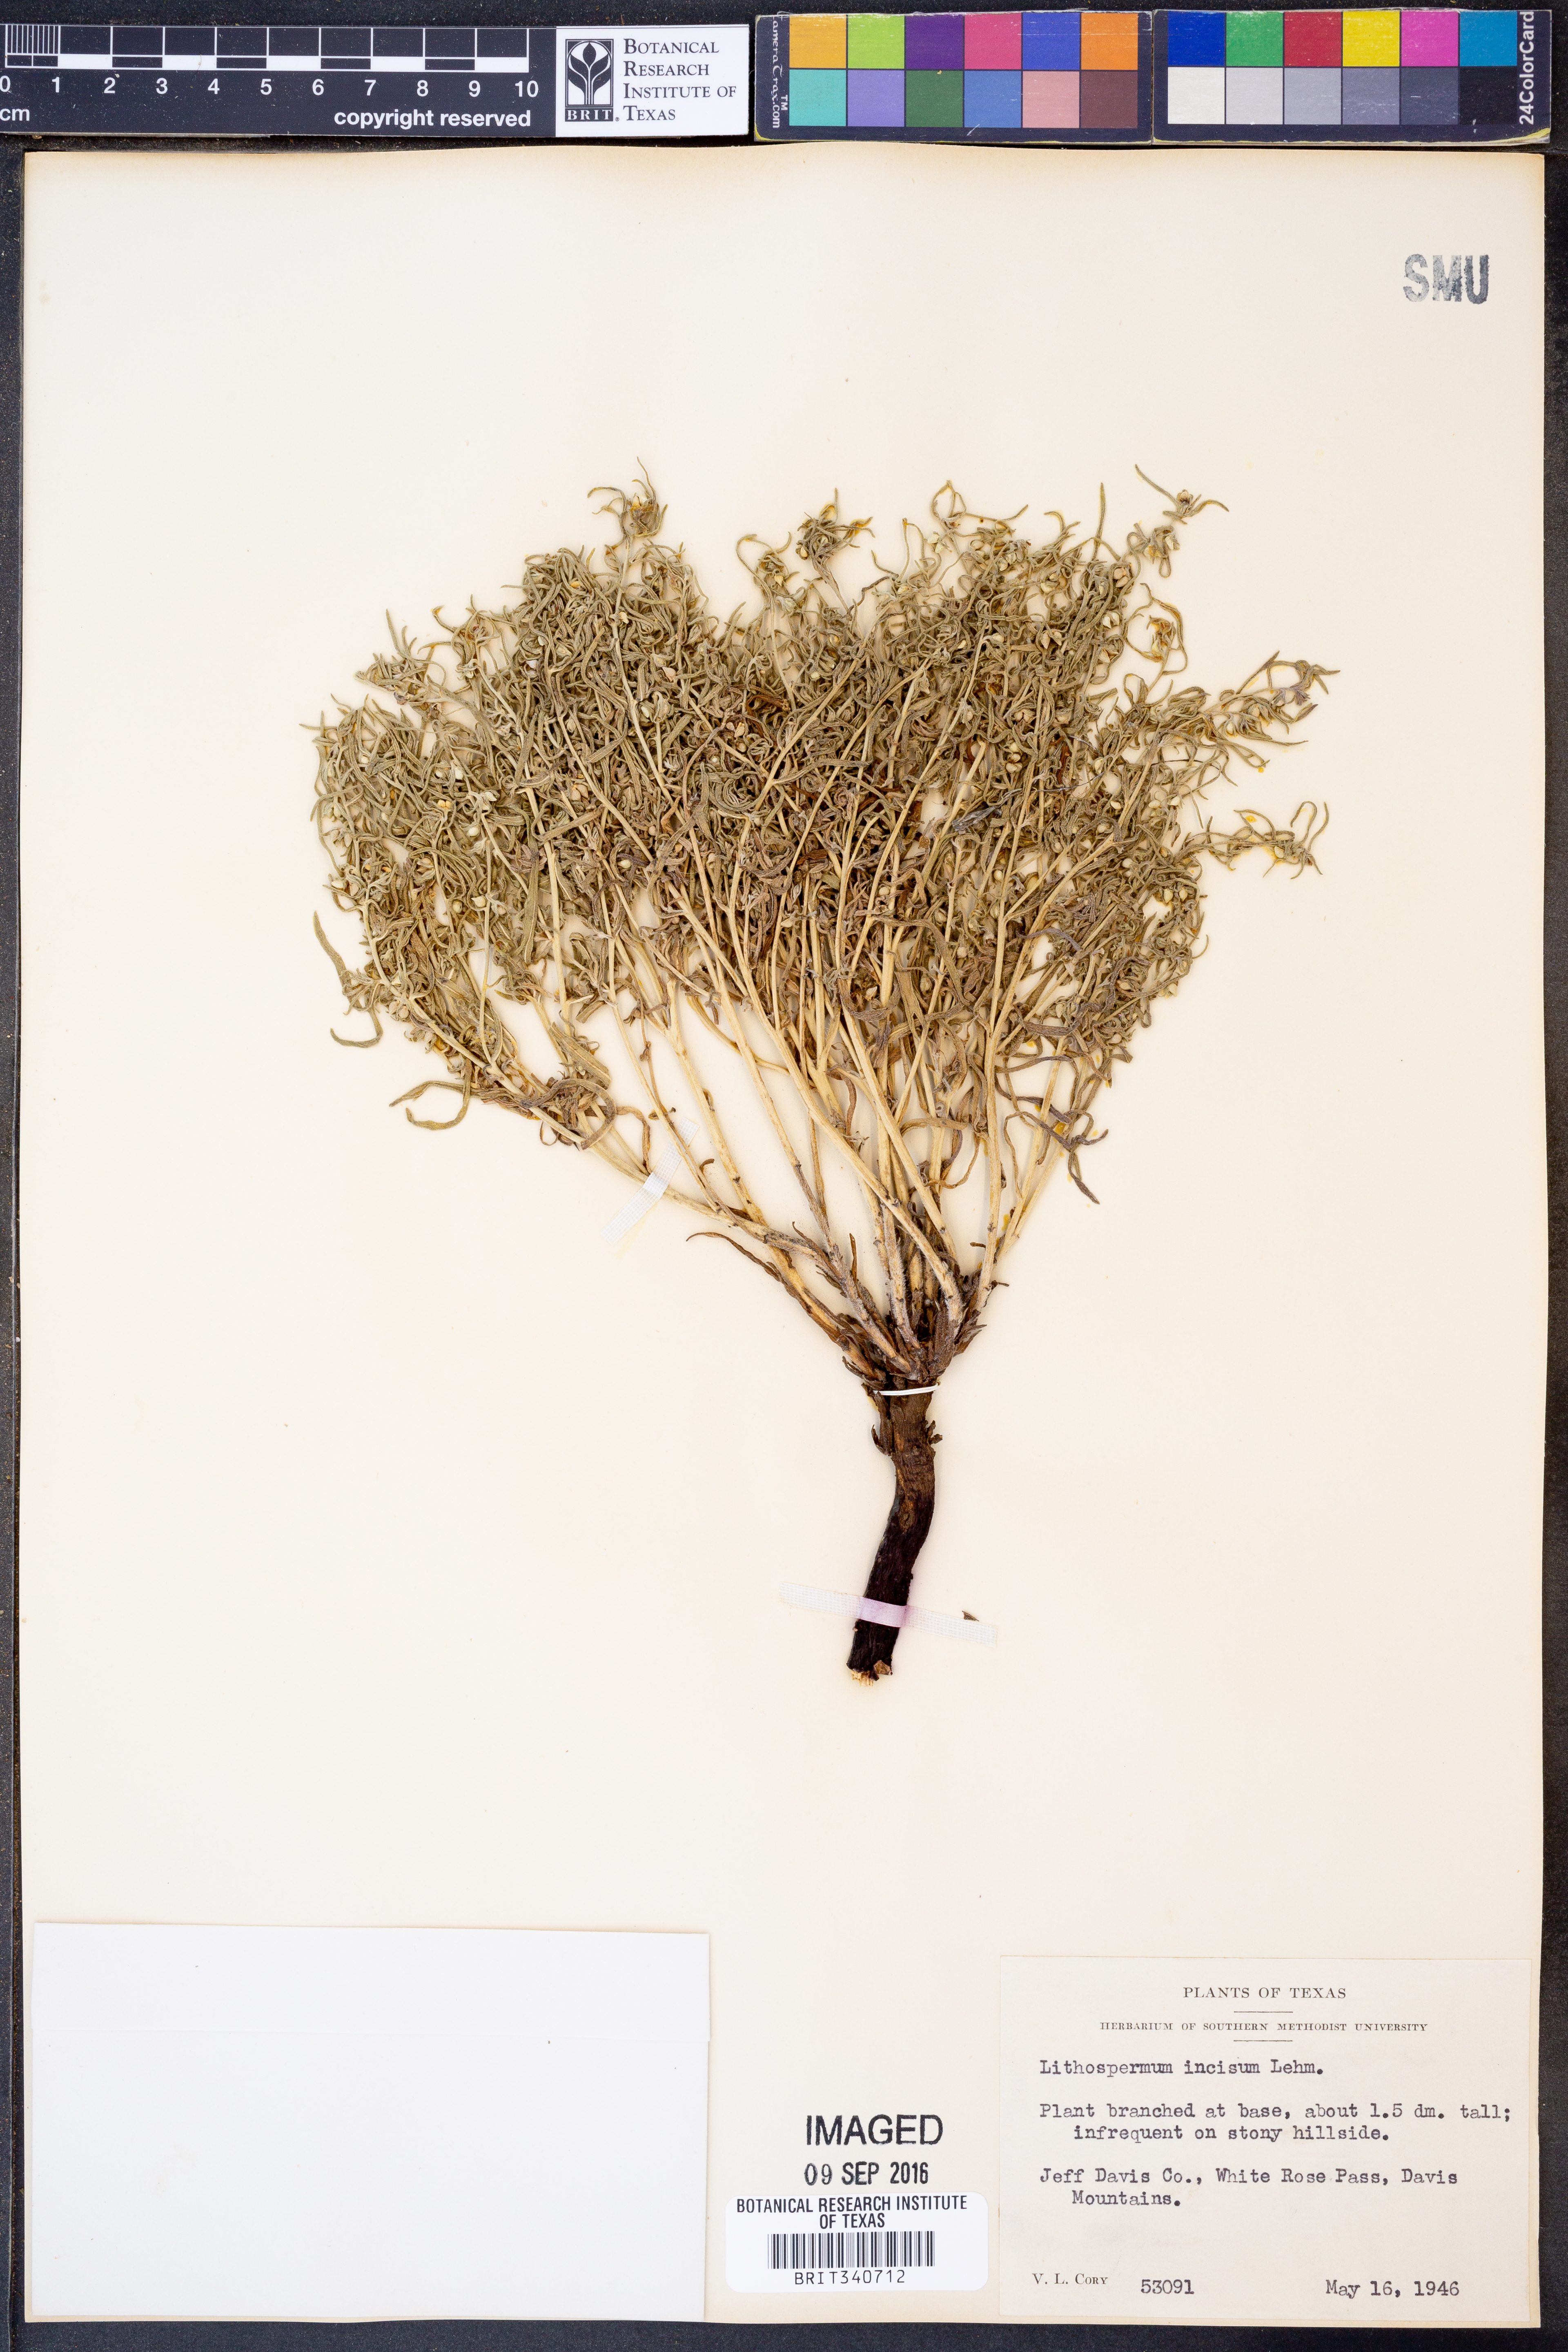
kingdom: Plantae
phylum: Tracheophyta
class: Magnoliopsida
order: Boraginales
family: Boraginaceae
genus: Lithospermum
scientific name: Lithospermum incisum
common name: Fringed gromwell
